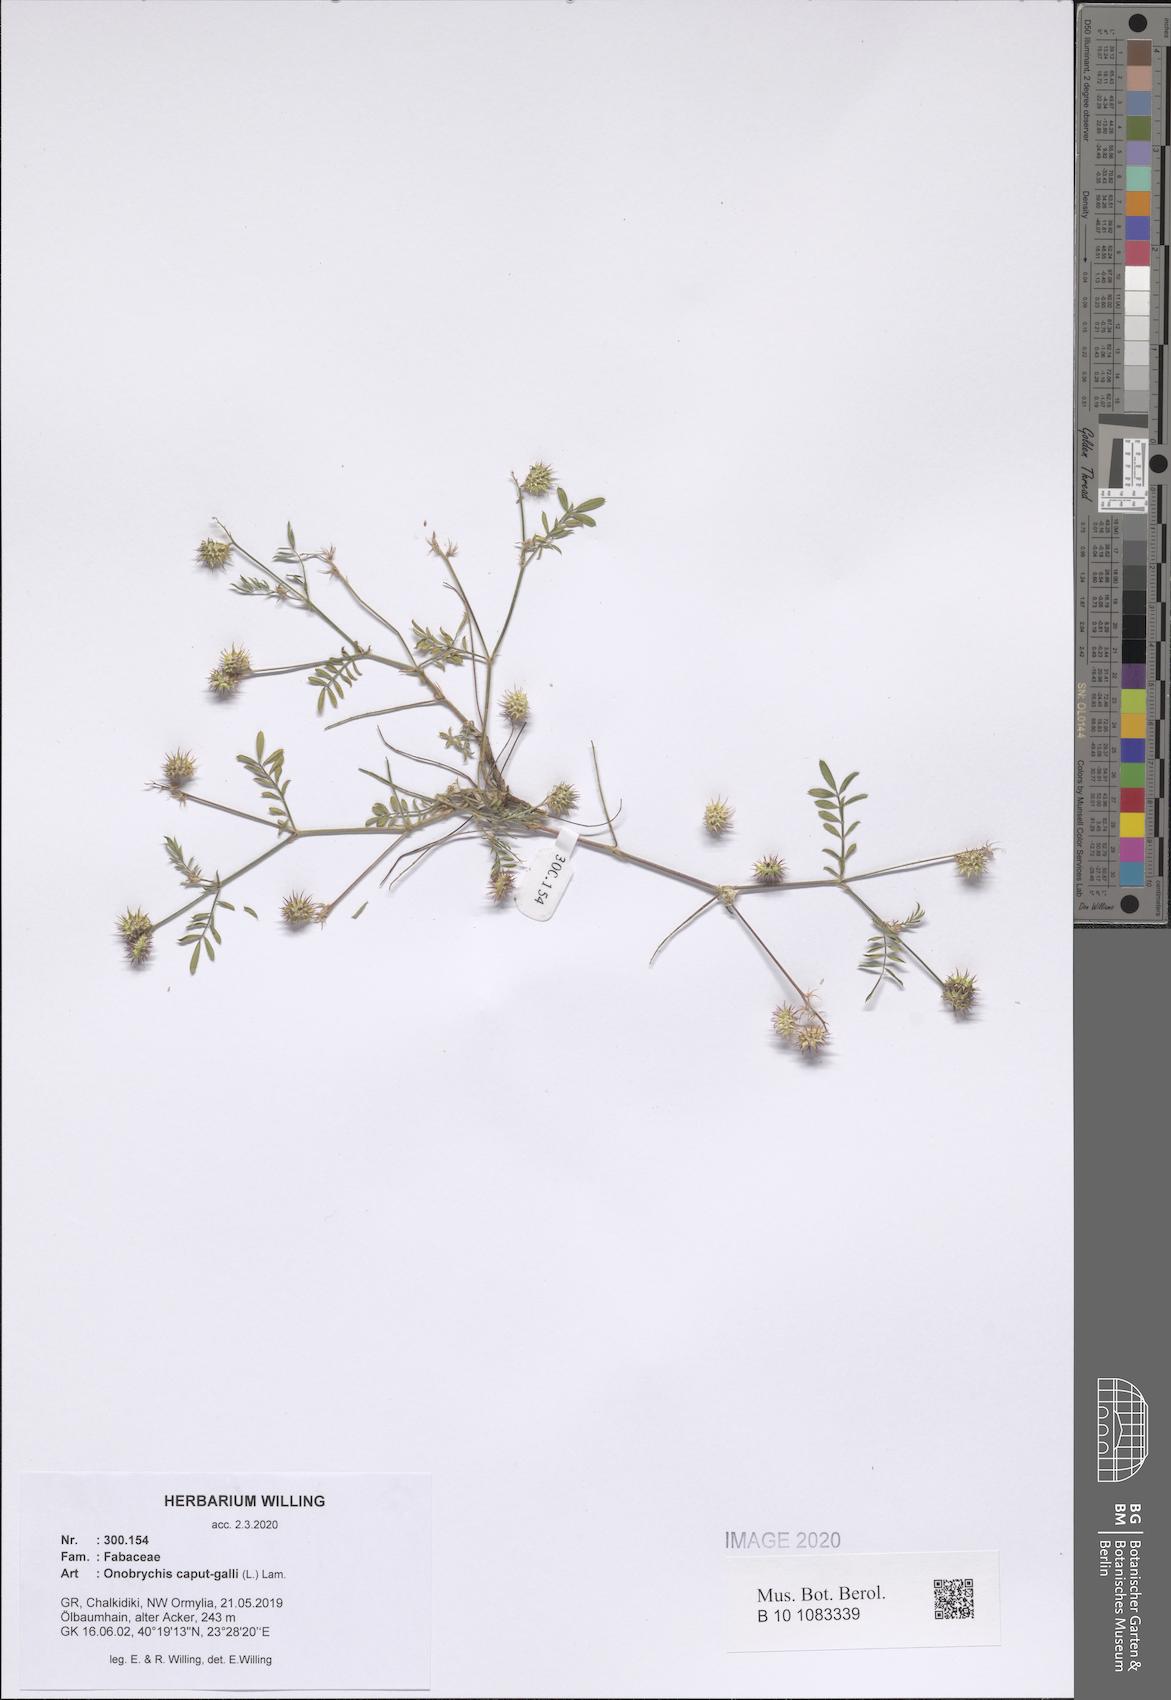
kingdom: Plantae
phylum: Tracheophyta
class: Magnoliopsida
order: Fabales
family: Fabaceae
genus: Onobrychis
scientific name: Onobrychis caput-galli
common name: Cockscomb sainfoin
